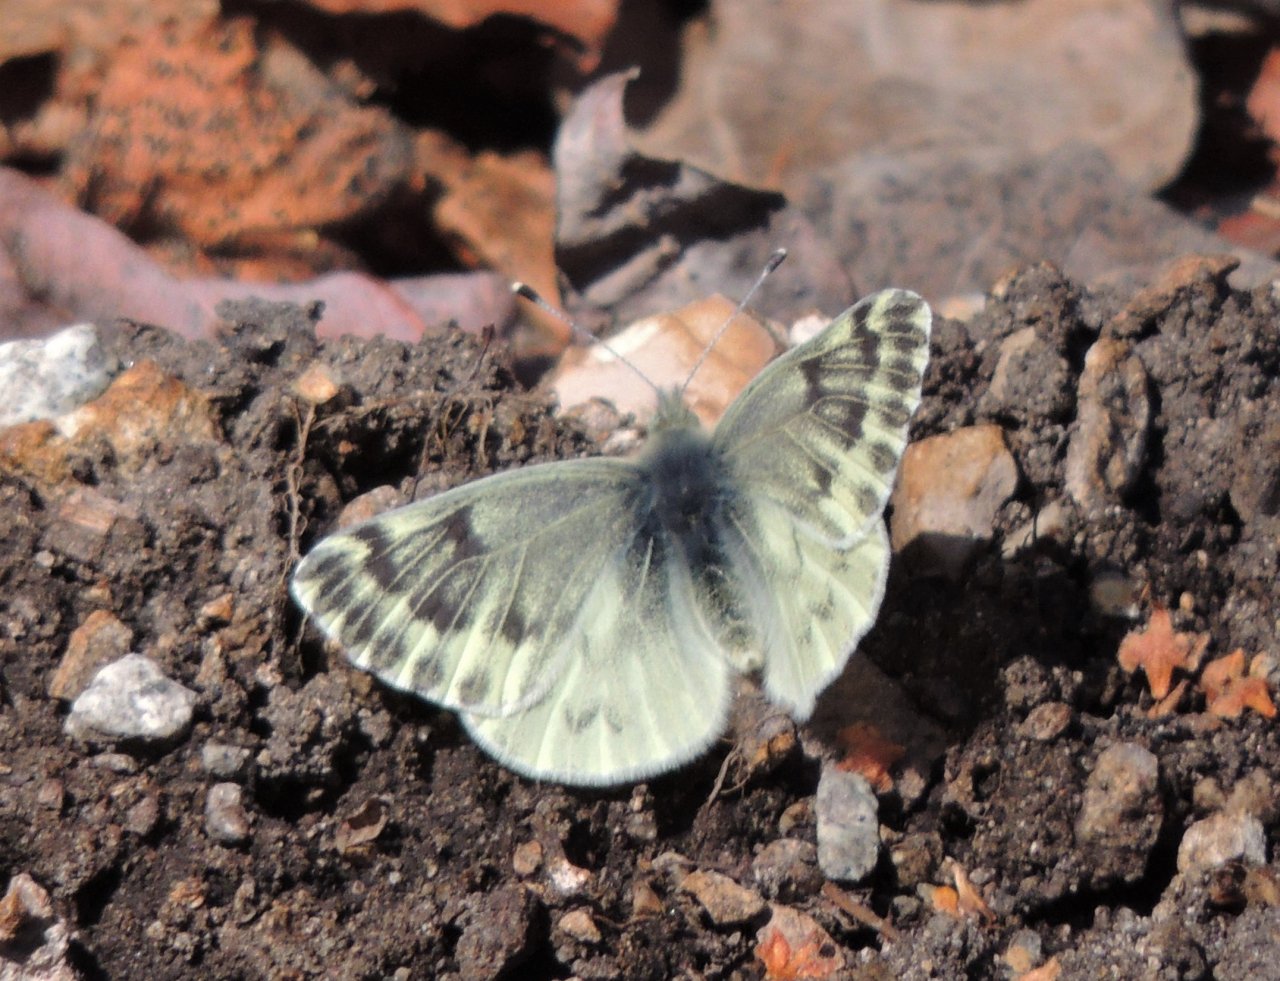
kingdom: Animalia
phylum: Arthropoda
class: Insecta
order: Lepidoptera
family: Pieridae
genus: Pontia
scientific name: Pontia sisymbrii
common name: Spring White
